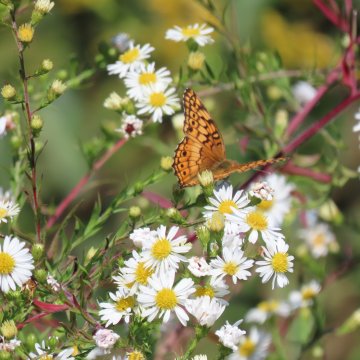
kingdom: Animalia
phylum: Arthropoda
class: Insecta
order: Lepidoptera
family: Nymphalidae
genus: Euptoieta
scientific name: Euptoieta claudia
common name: Variegated Fritillary
